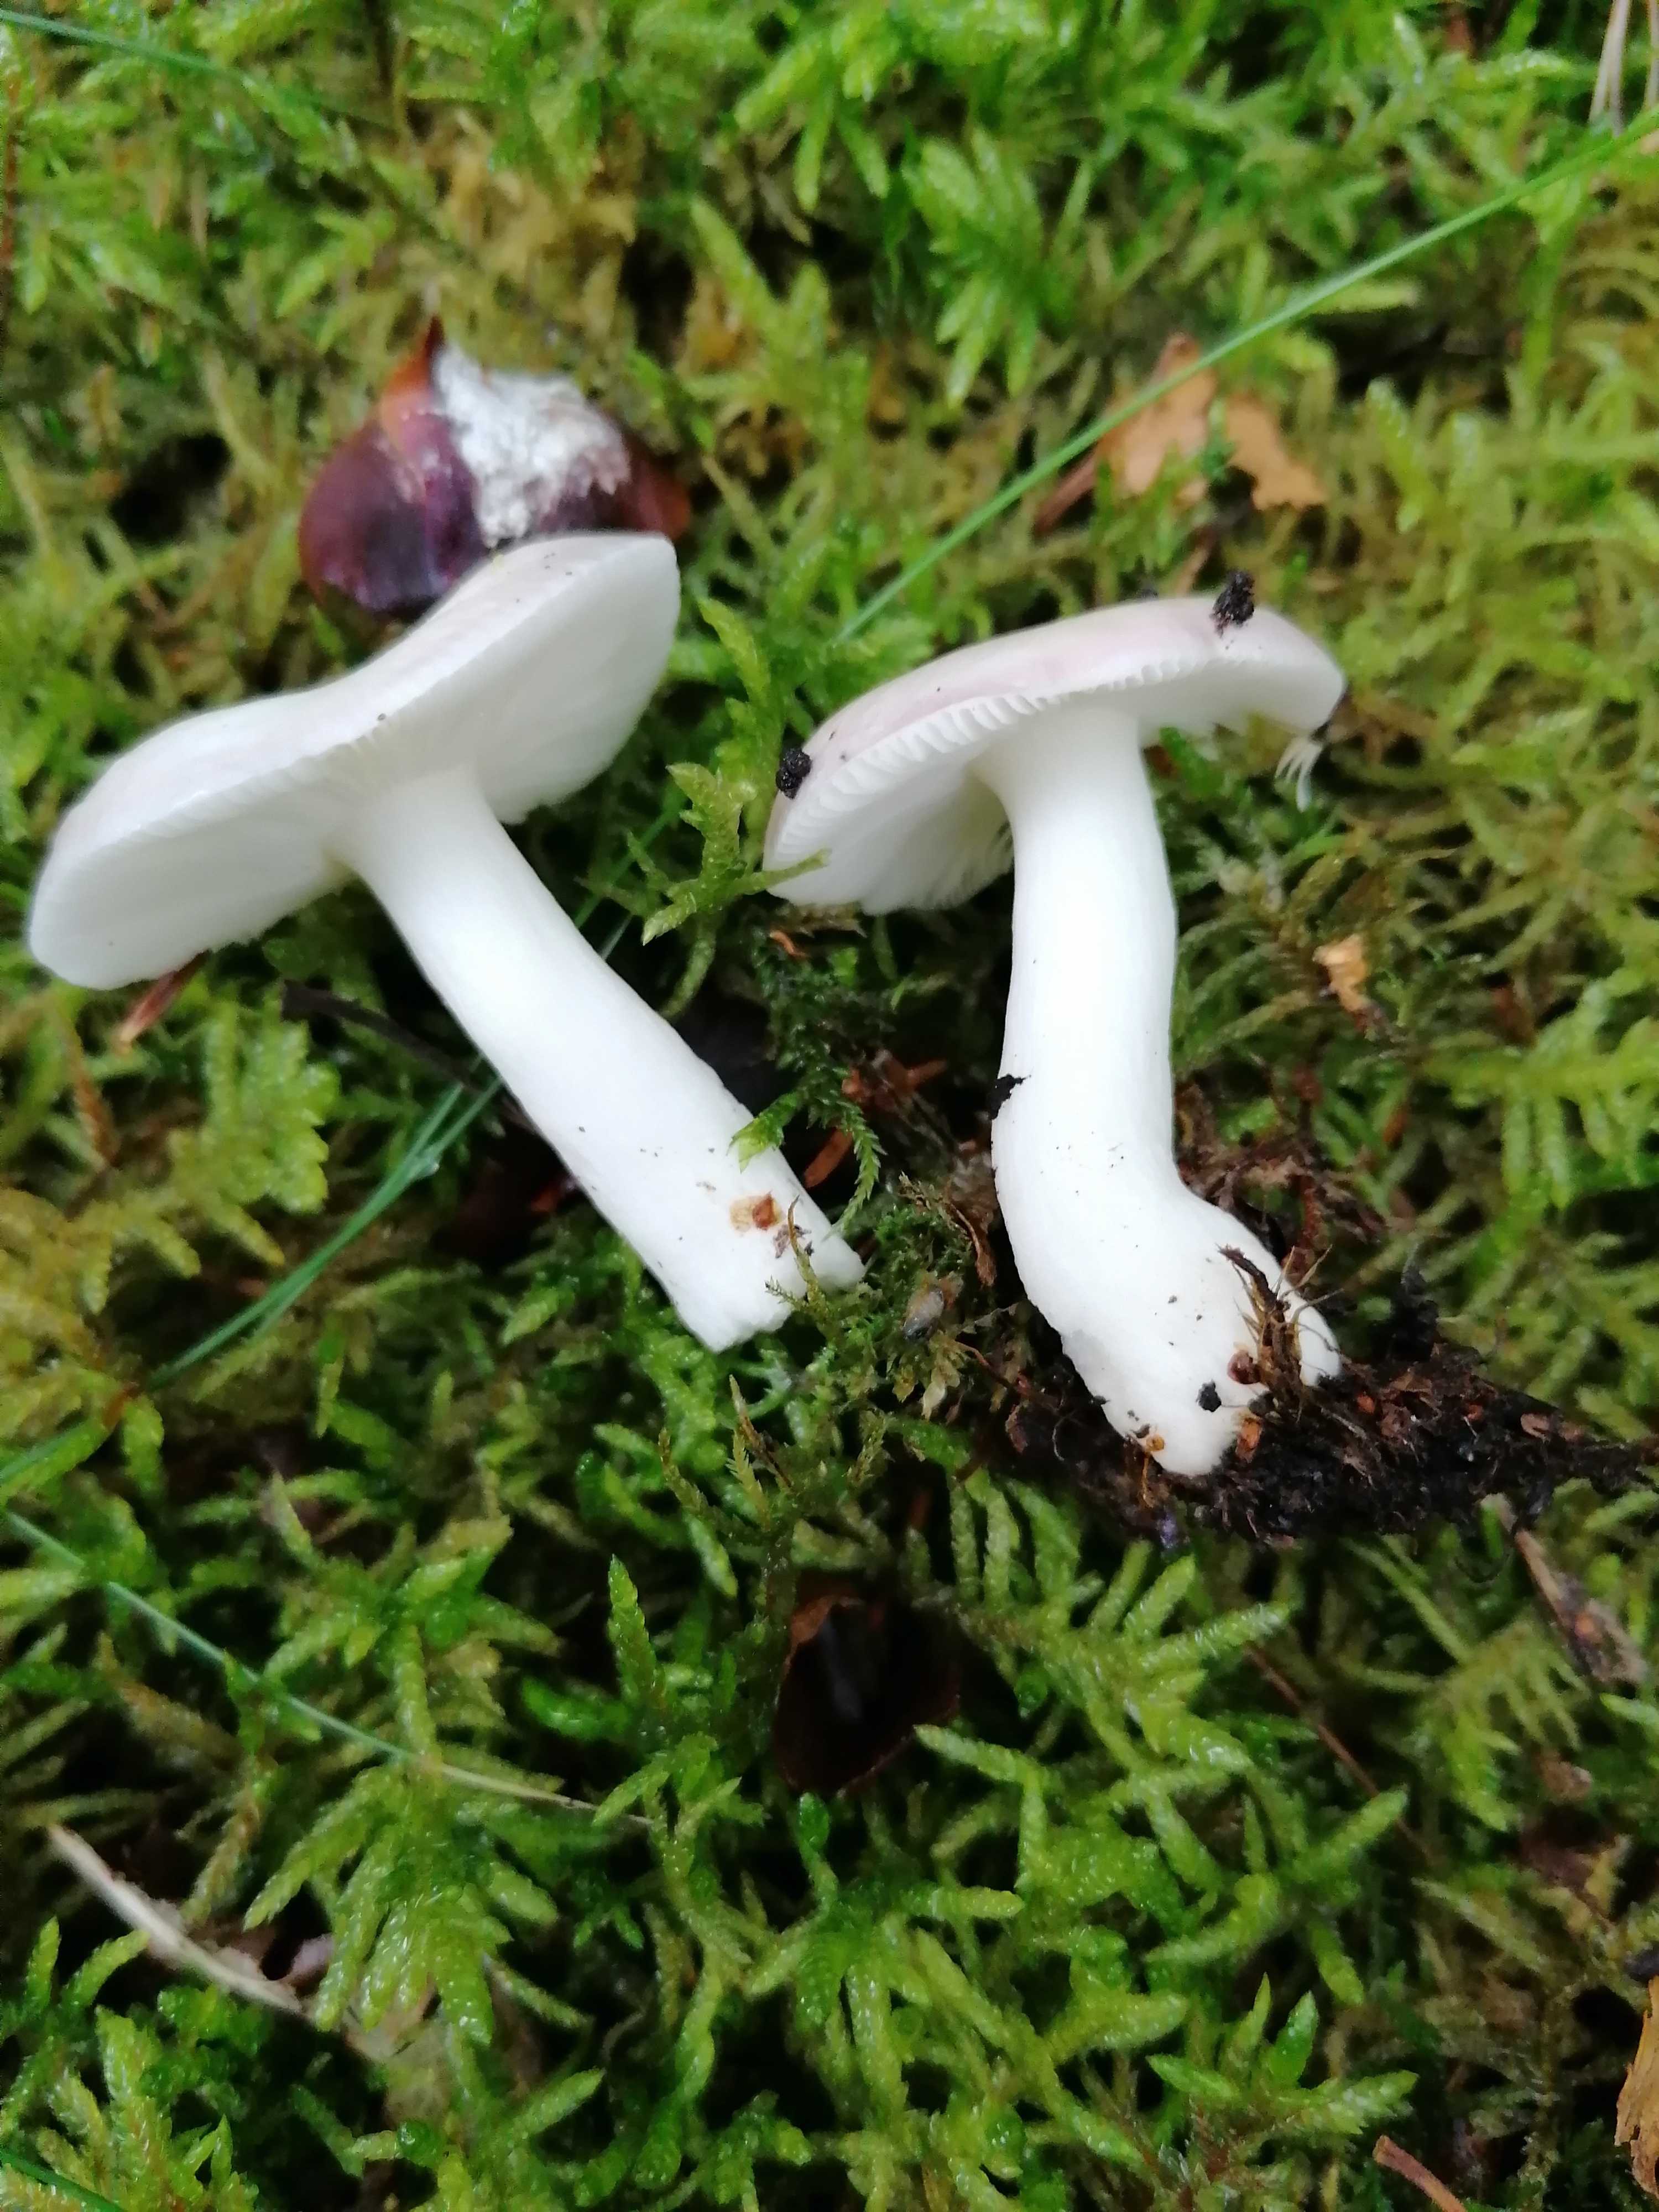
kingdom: Fungi
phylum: Basidiomycota
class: Agaricomycetes
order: Russulales
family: Russulaceae
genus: Russula
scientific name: Russula betularum
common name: bleg gift-skørhat
